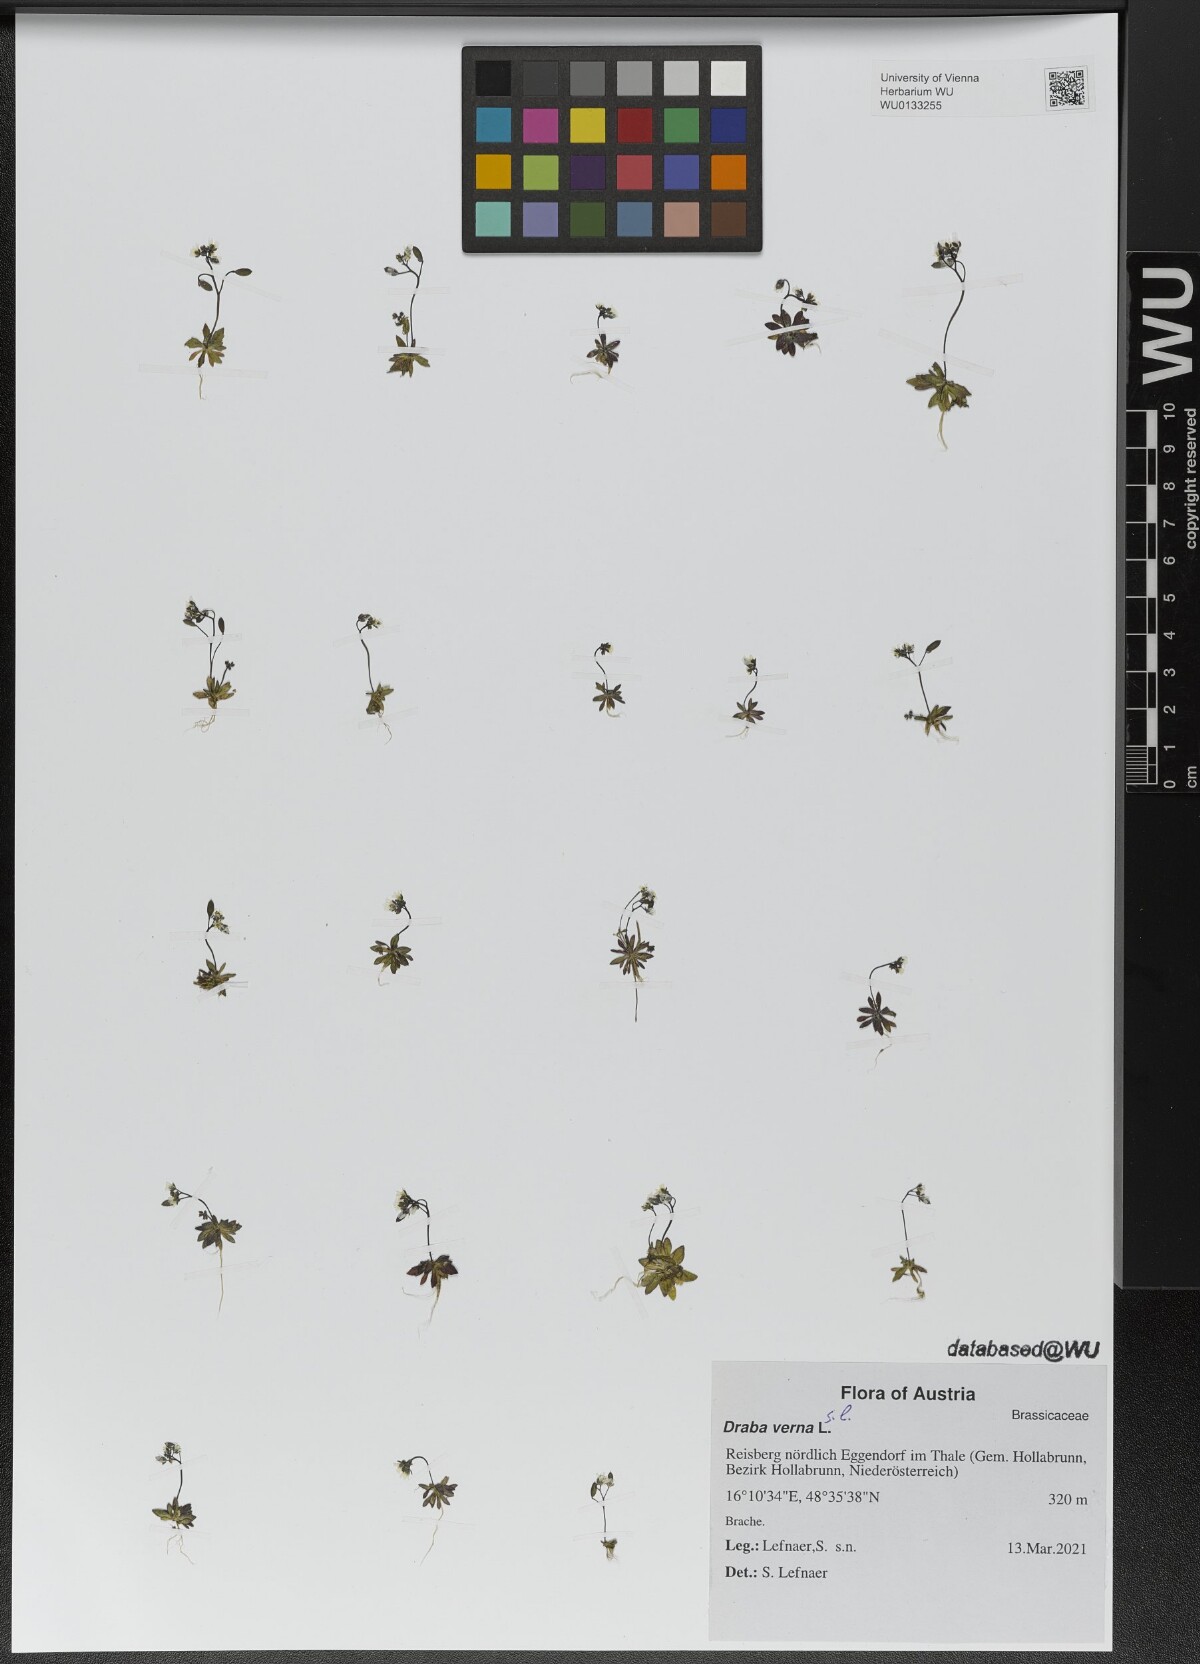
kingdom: Plantae
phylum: Tracheophyta
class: Magnoliopsida
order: Brassicales
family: Brassicaceae
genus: Draba
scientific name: Draba verna
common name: Spring draba
